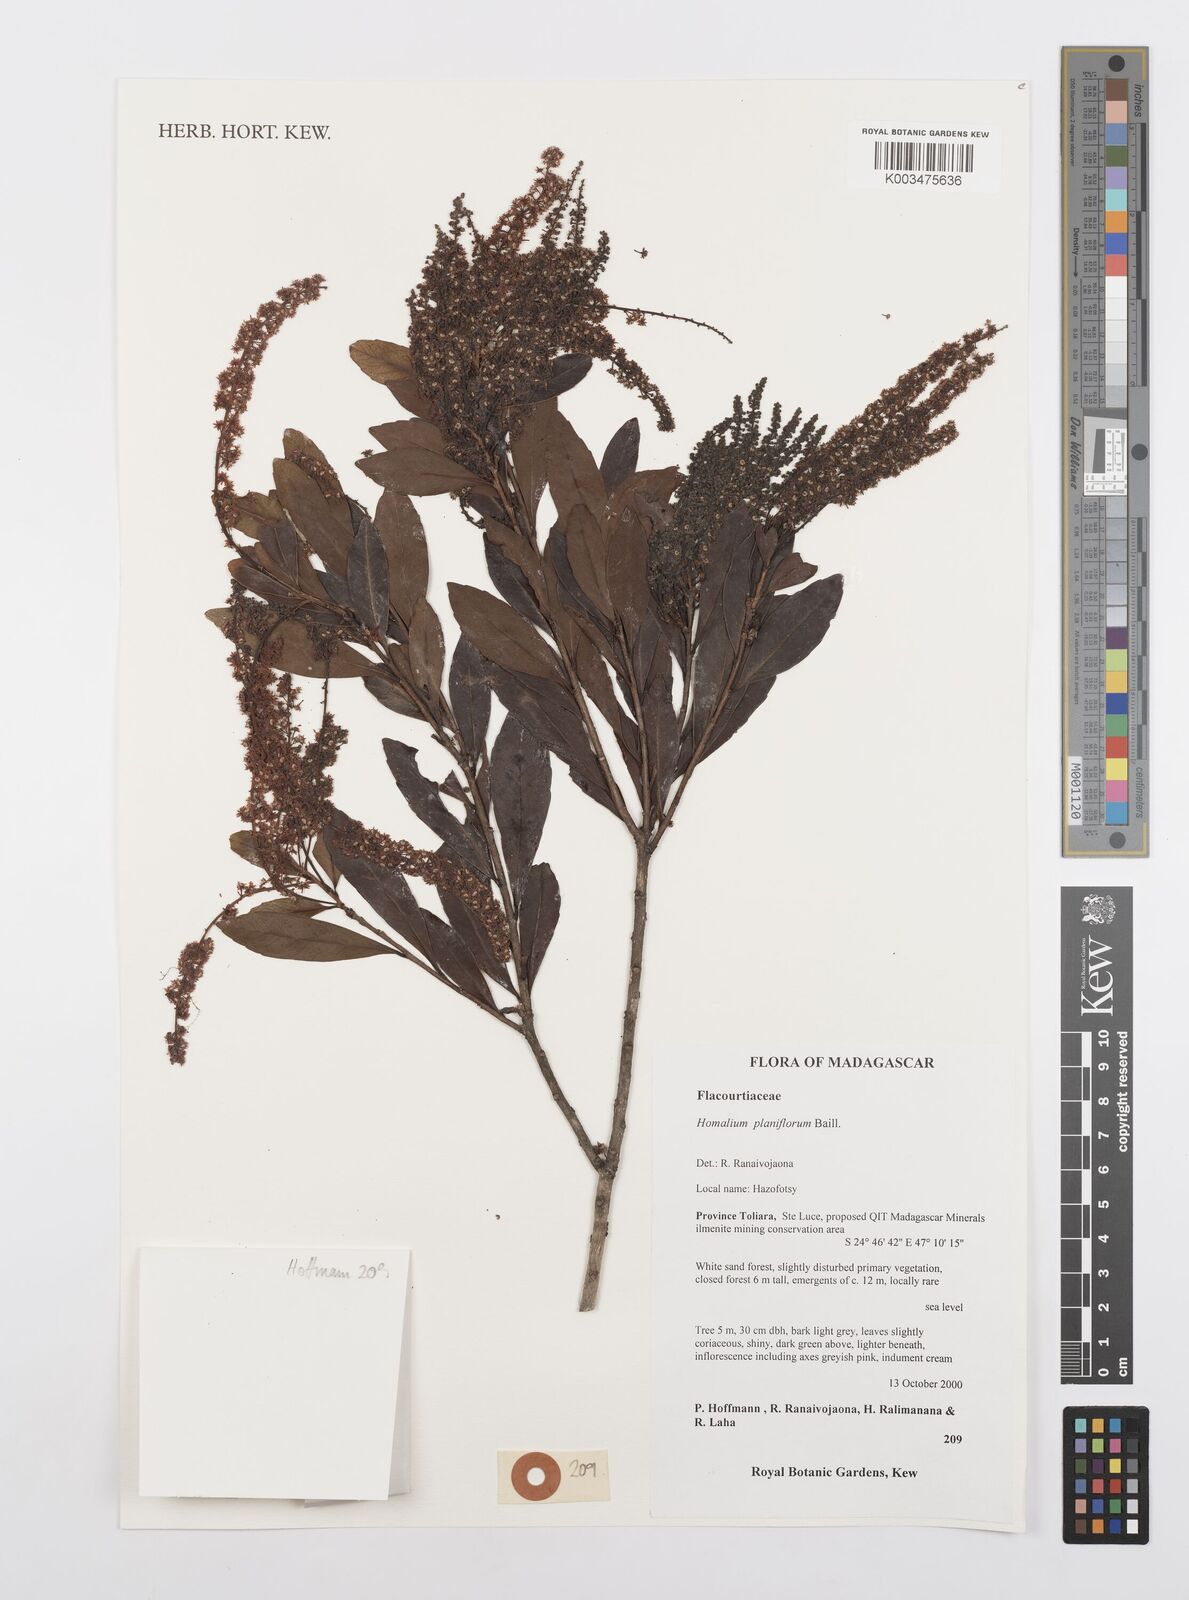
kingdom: Plantae
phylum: Tracheophyta
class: Magnoliopsida
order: Malpighiales
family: Salicaceae
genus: Homalium
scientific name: Homalium planiflorum
